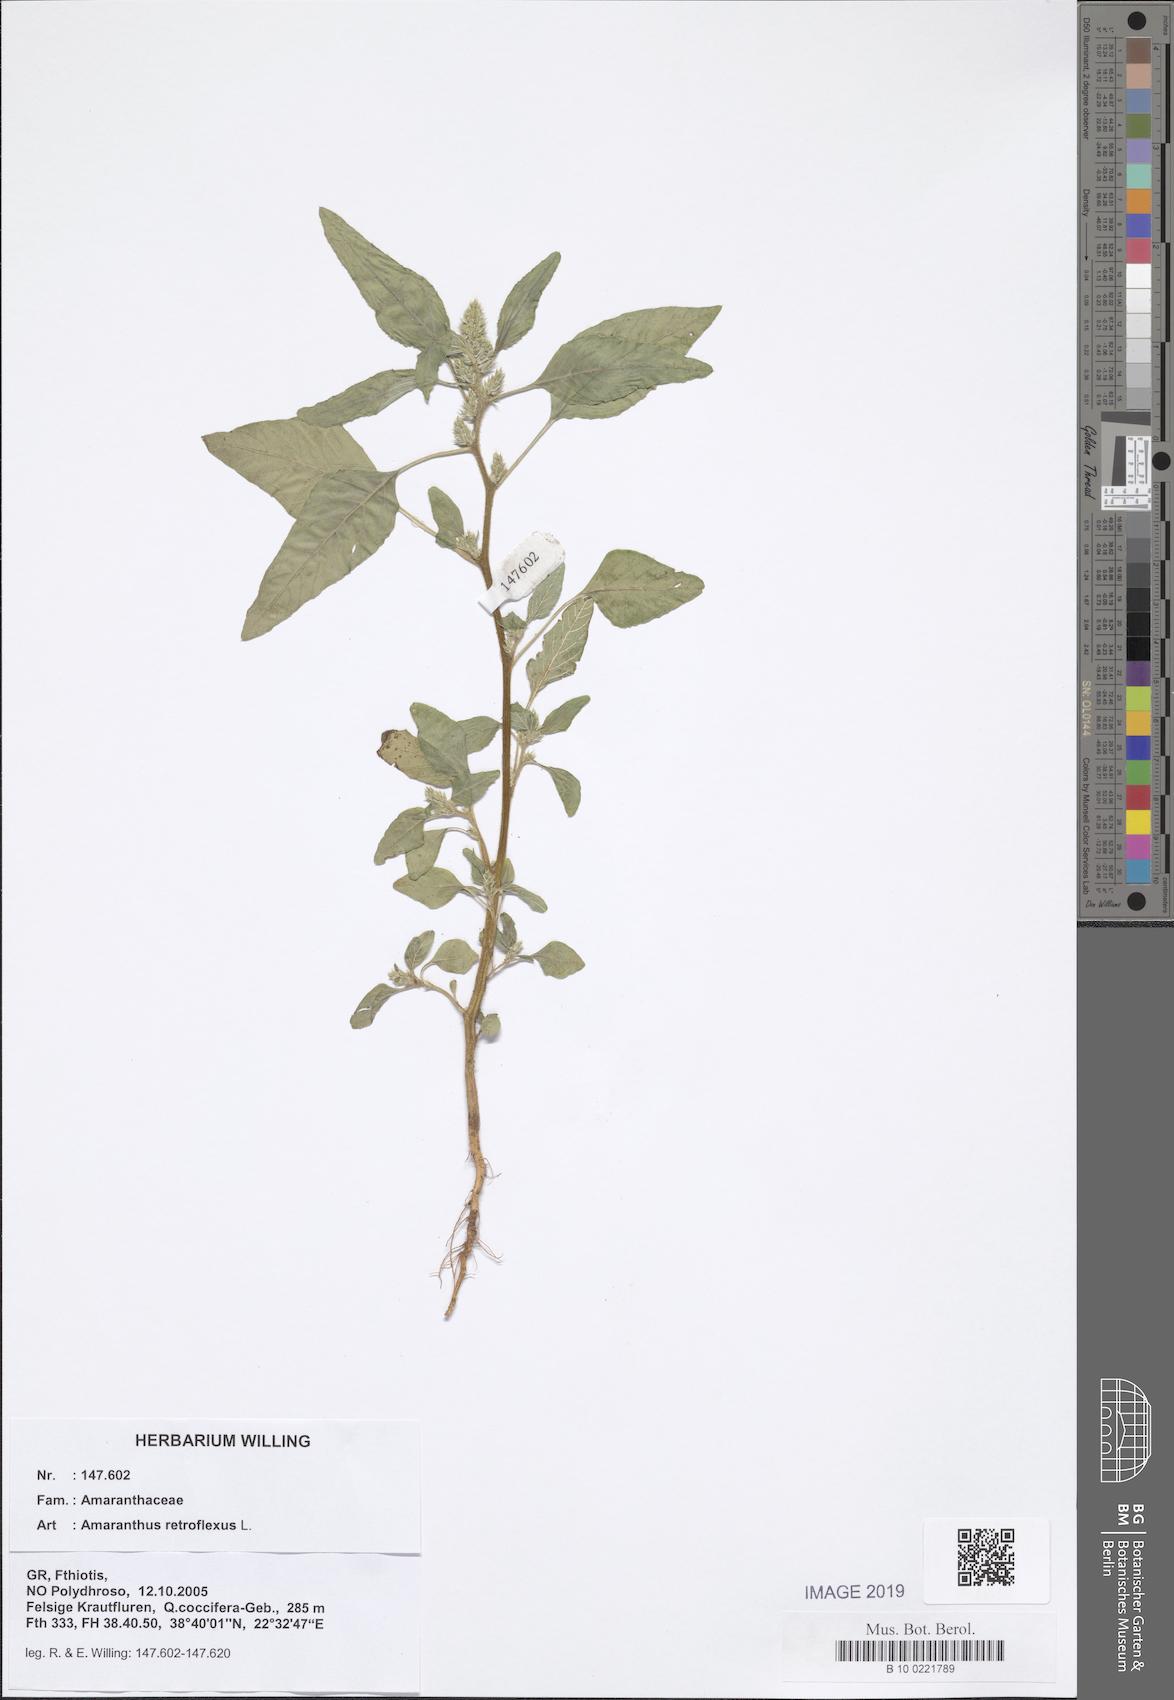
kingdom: Plantae
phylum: Tracheophyta
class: Magnoliopsida
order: Caryophyllales
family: Amaranthaceae
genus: Amaranthus
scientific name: Amaranthus retroflexus
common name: Redroot amaranth
